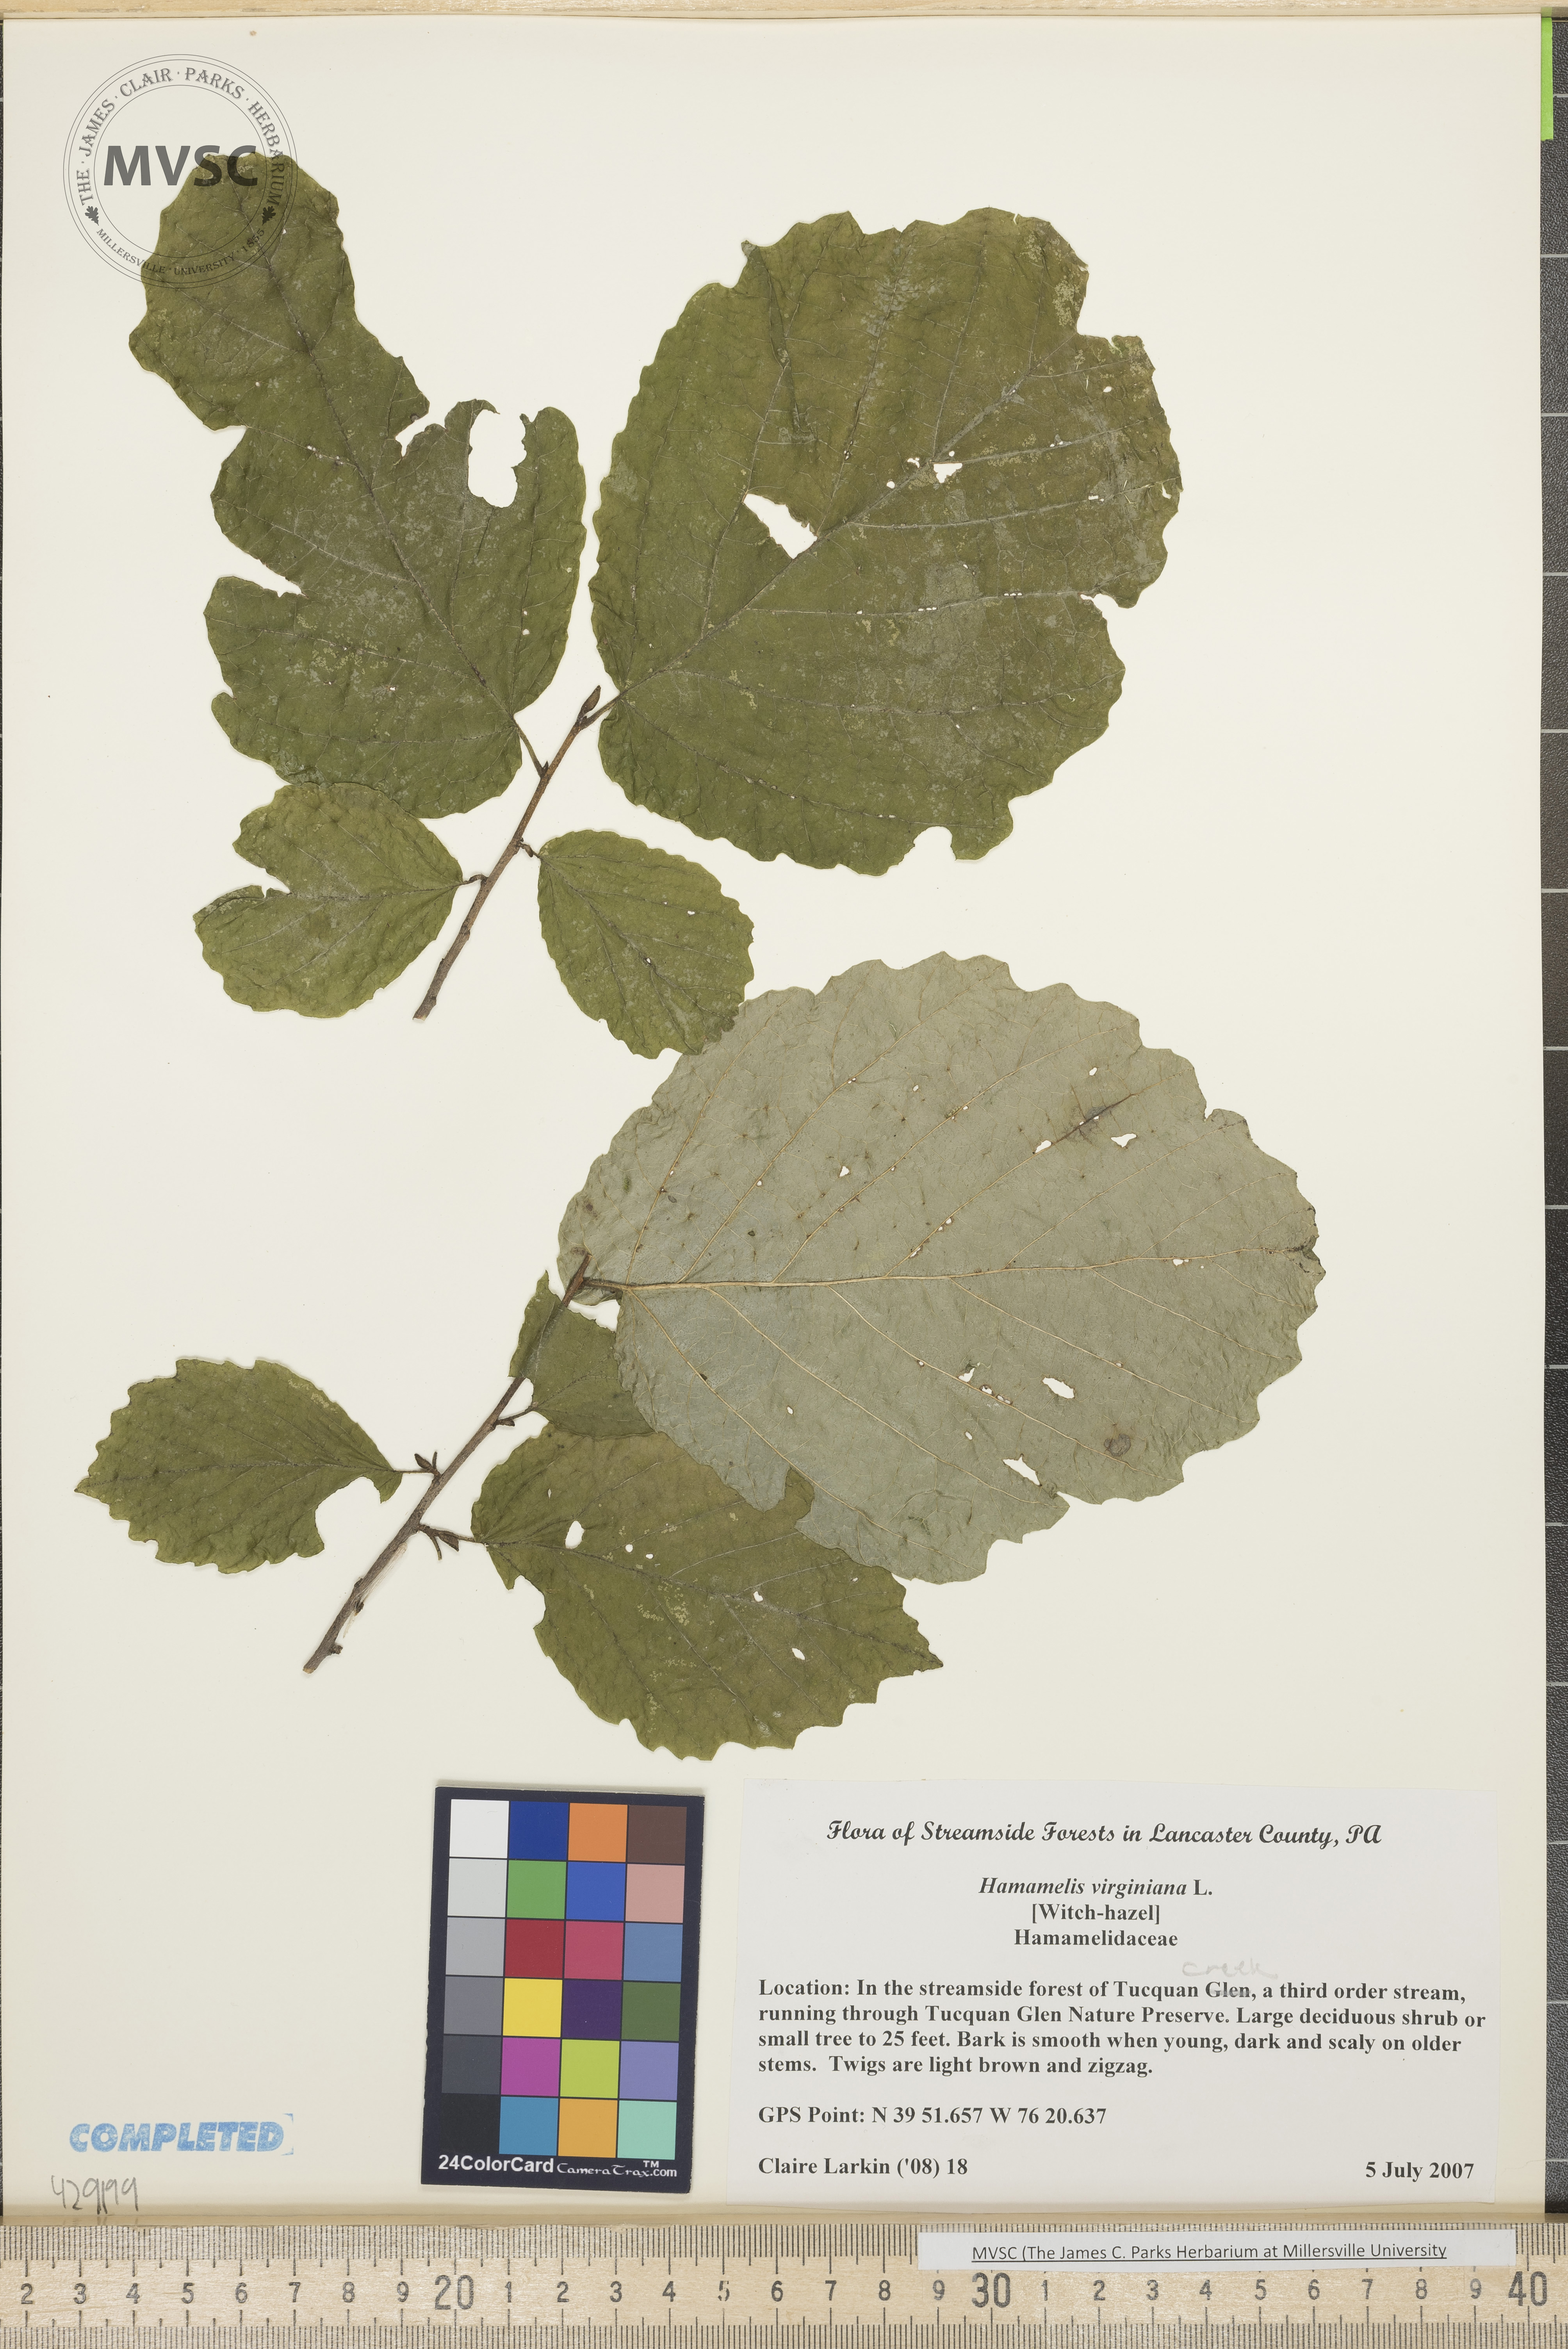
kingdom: Plantae
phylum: Tracheophyta
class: Magnoliopsida
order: Saxifragales
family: Hamamelidaceae
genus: Hamamelis
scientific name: Hamamelis virginiana
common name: Witch hazel
